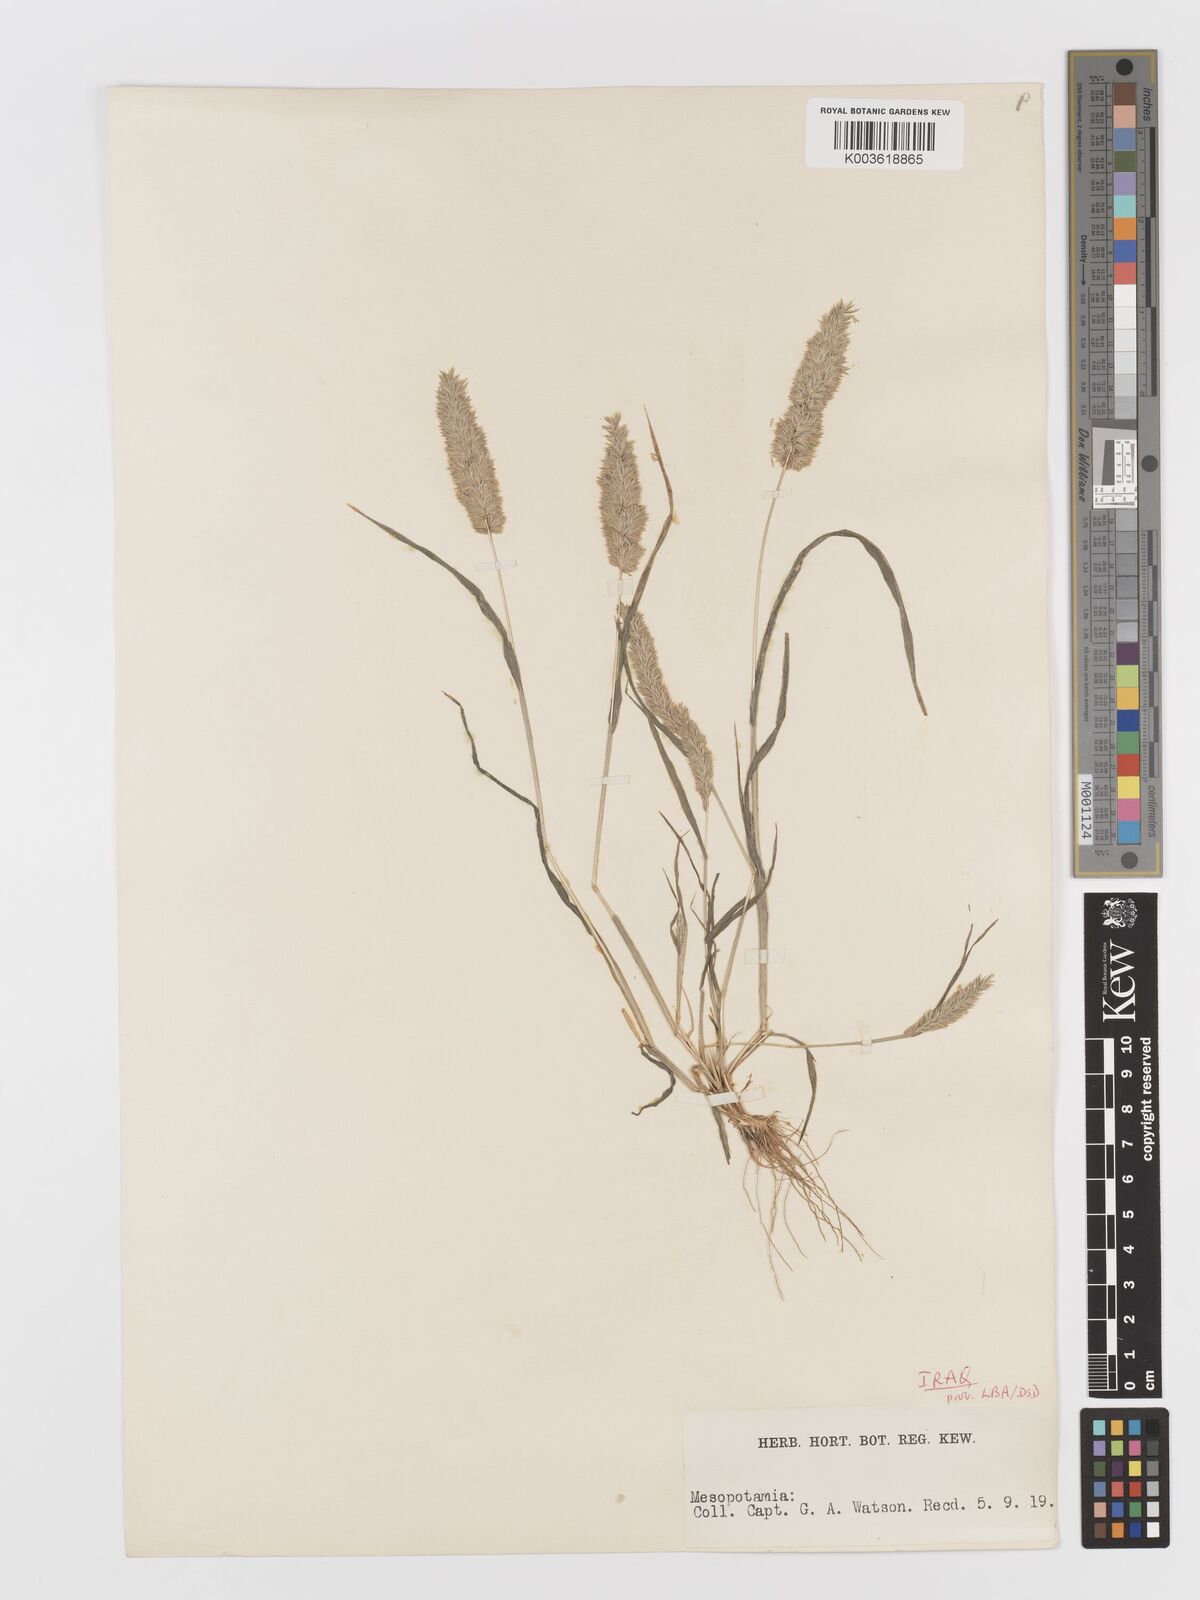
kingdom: Plantae
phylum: Tracheophyta
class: Liliopsida
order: Poales
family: Poaceae
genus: Rostraria
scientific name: Rostraria cristata
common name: Mediterranean hair-grass
